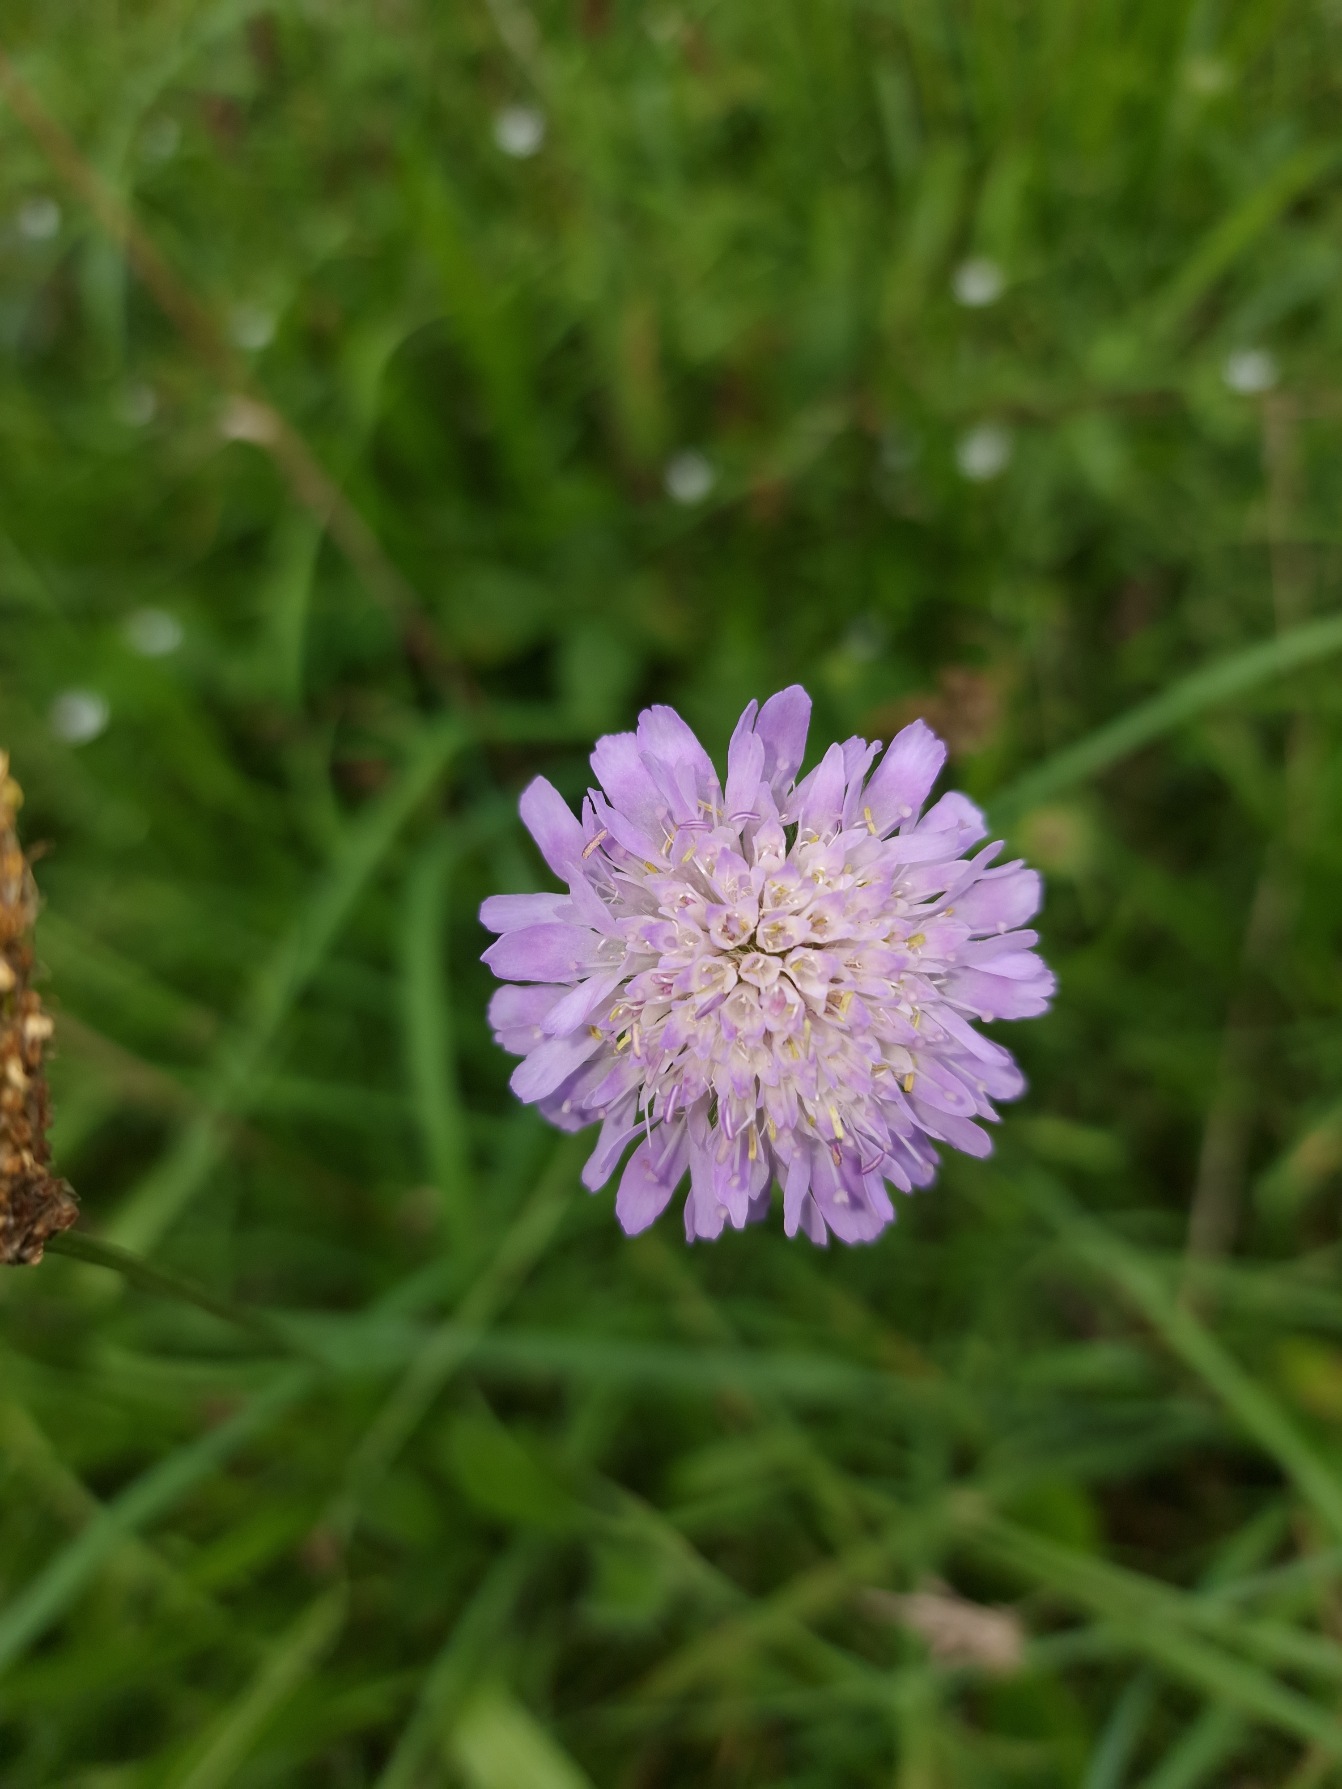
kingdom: Plantae
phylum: Tracheophyta
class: Magnoliopsida
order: Dipsacales
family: Caprifoliaceae
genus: Knautia
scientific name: Knautia arvensis
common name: Blåhat
